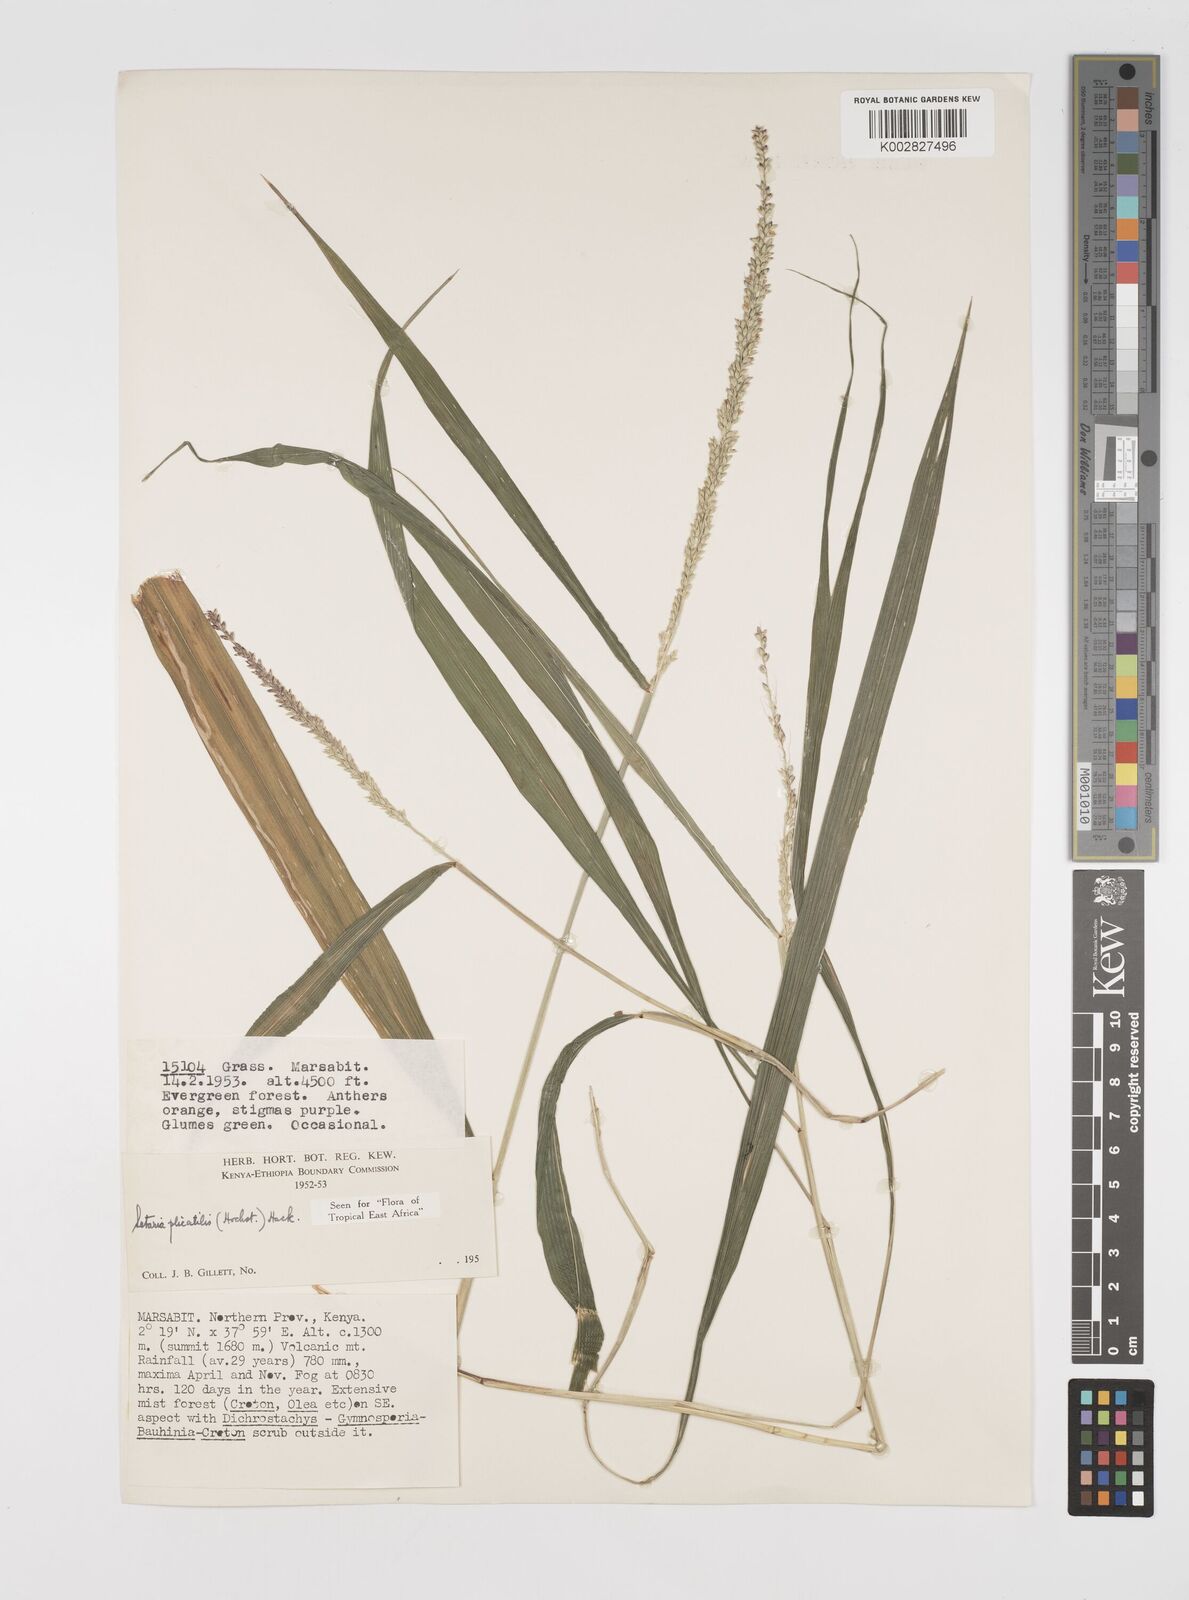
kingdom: Plantae
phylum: Tracheophyta
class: Liliopsida
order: Poales
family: Poaceae
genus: Setaria
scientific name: Setaria megaphylla
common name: Bigleaf bristlegrass
